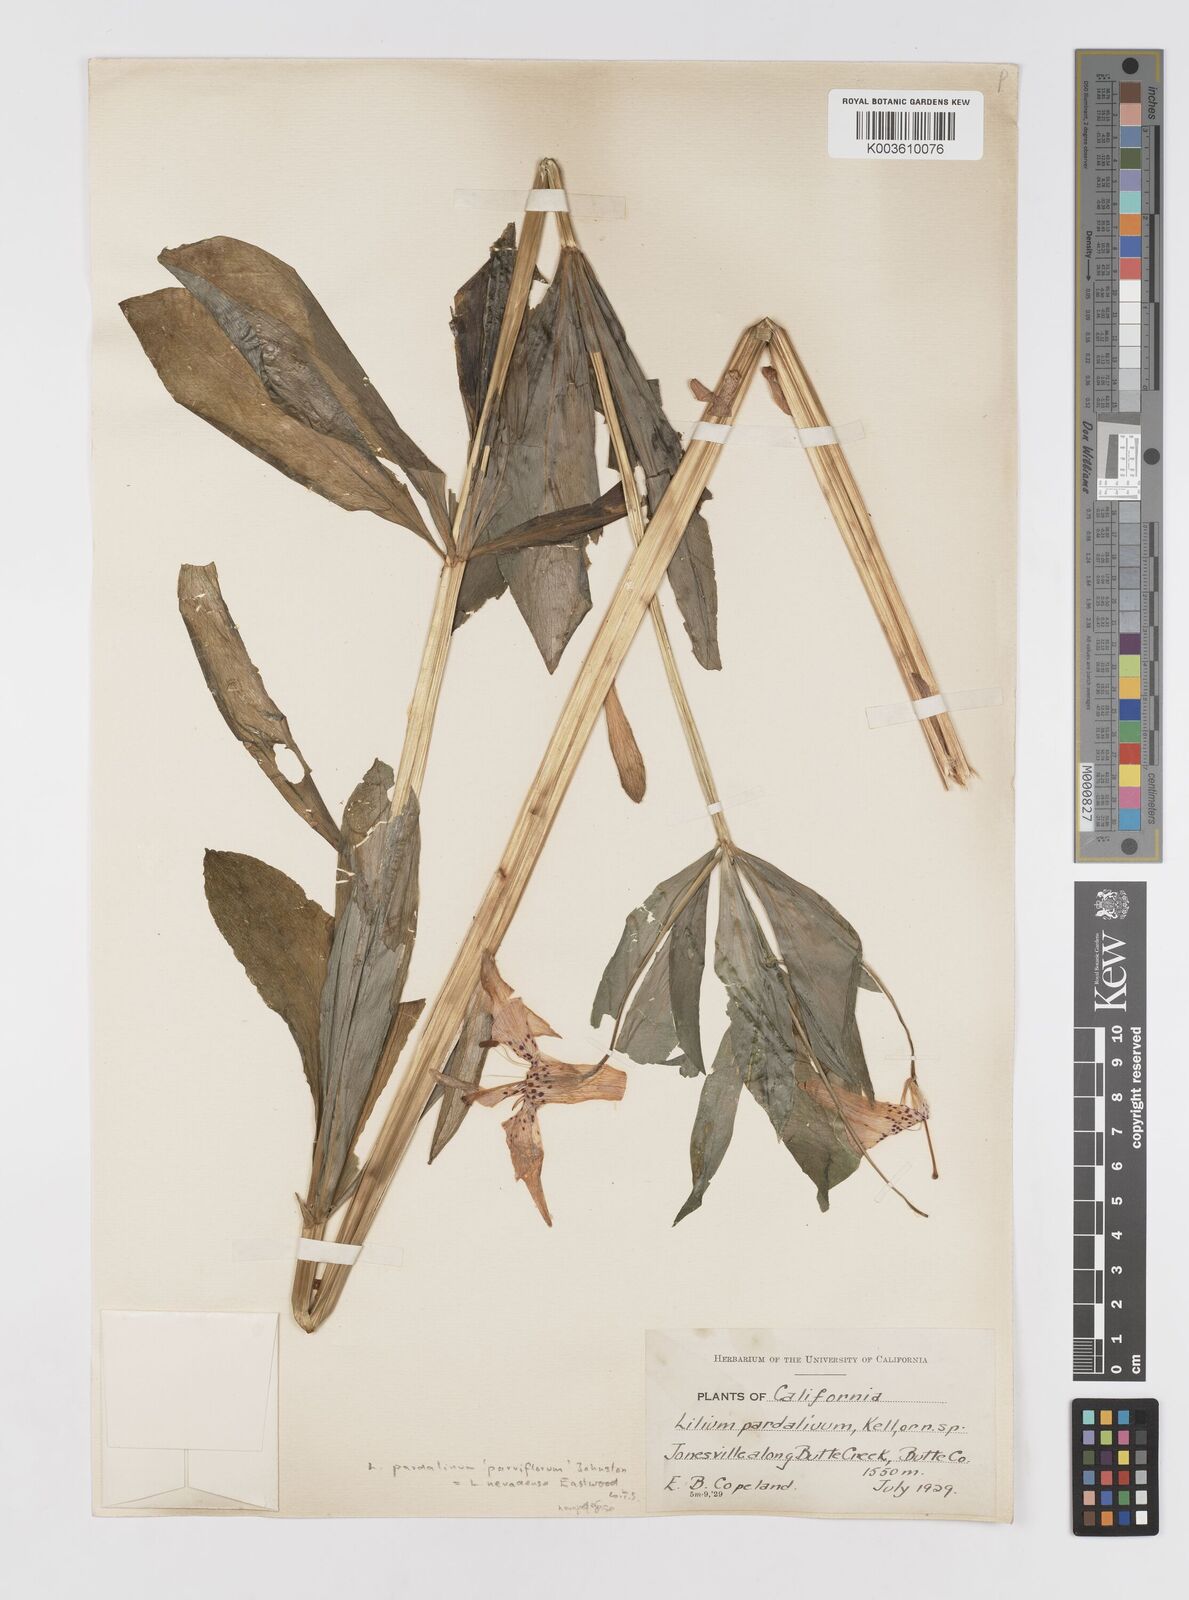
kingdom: Plantae
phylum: Tracheophyta
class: Liliopsida
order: Liliales
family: Liliaceae
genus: Lilium
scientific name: Lilium kelleyanum
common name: Kelley's lily
